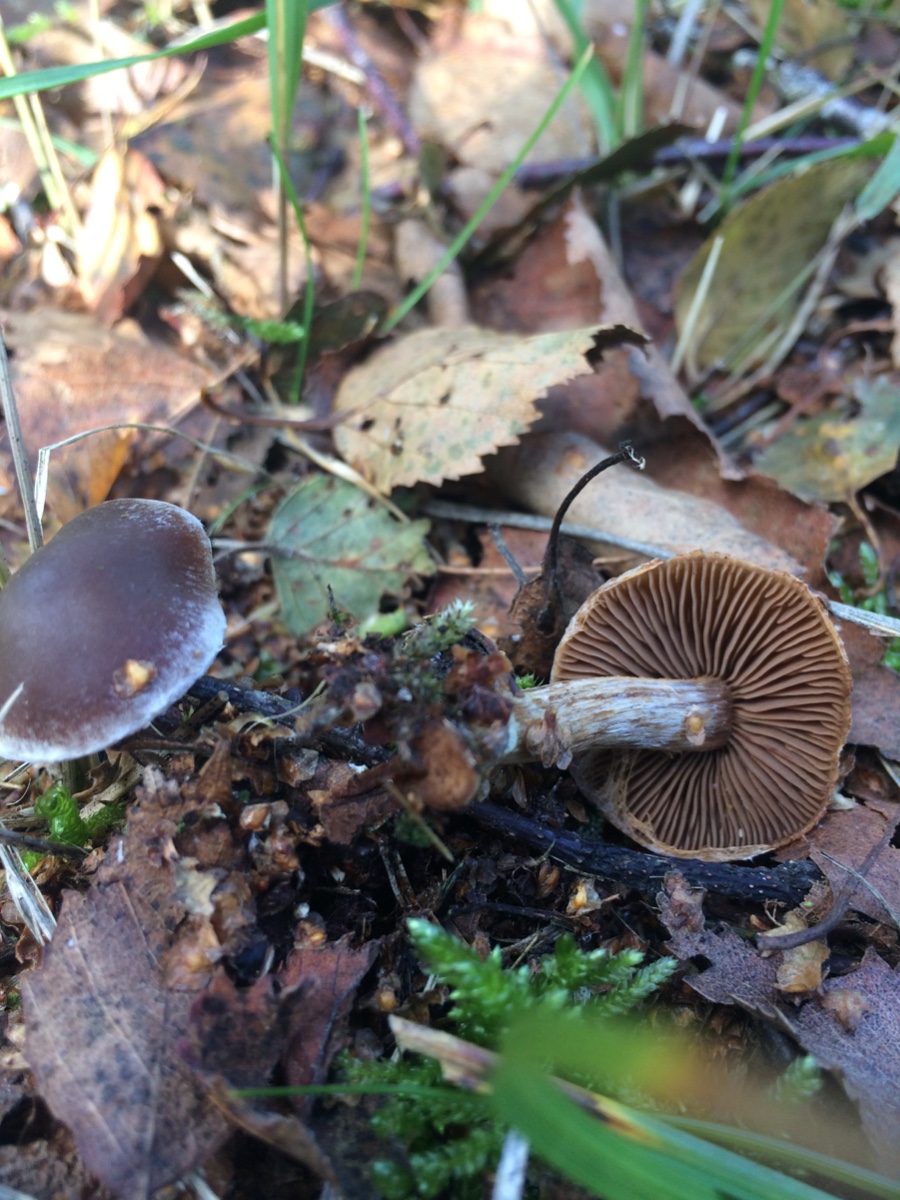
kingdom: Fungi
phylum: Basidiomycota
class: Agaricomycetes
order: Agaricales
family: Cortinariaceae
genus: Cortinarius
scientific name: Cortinarius
